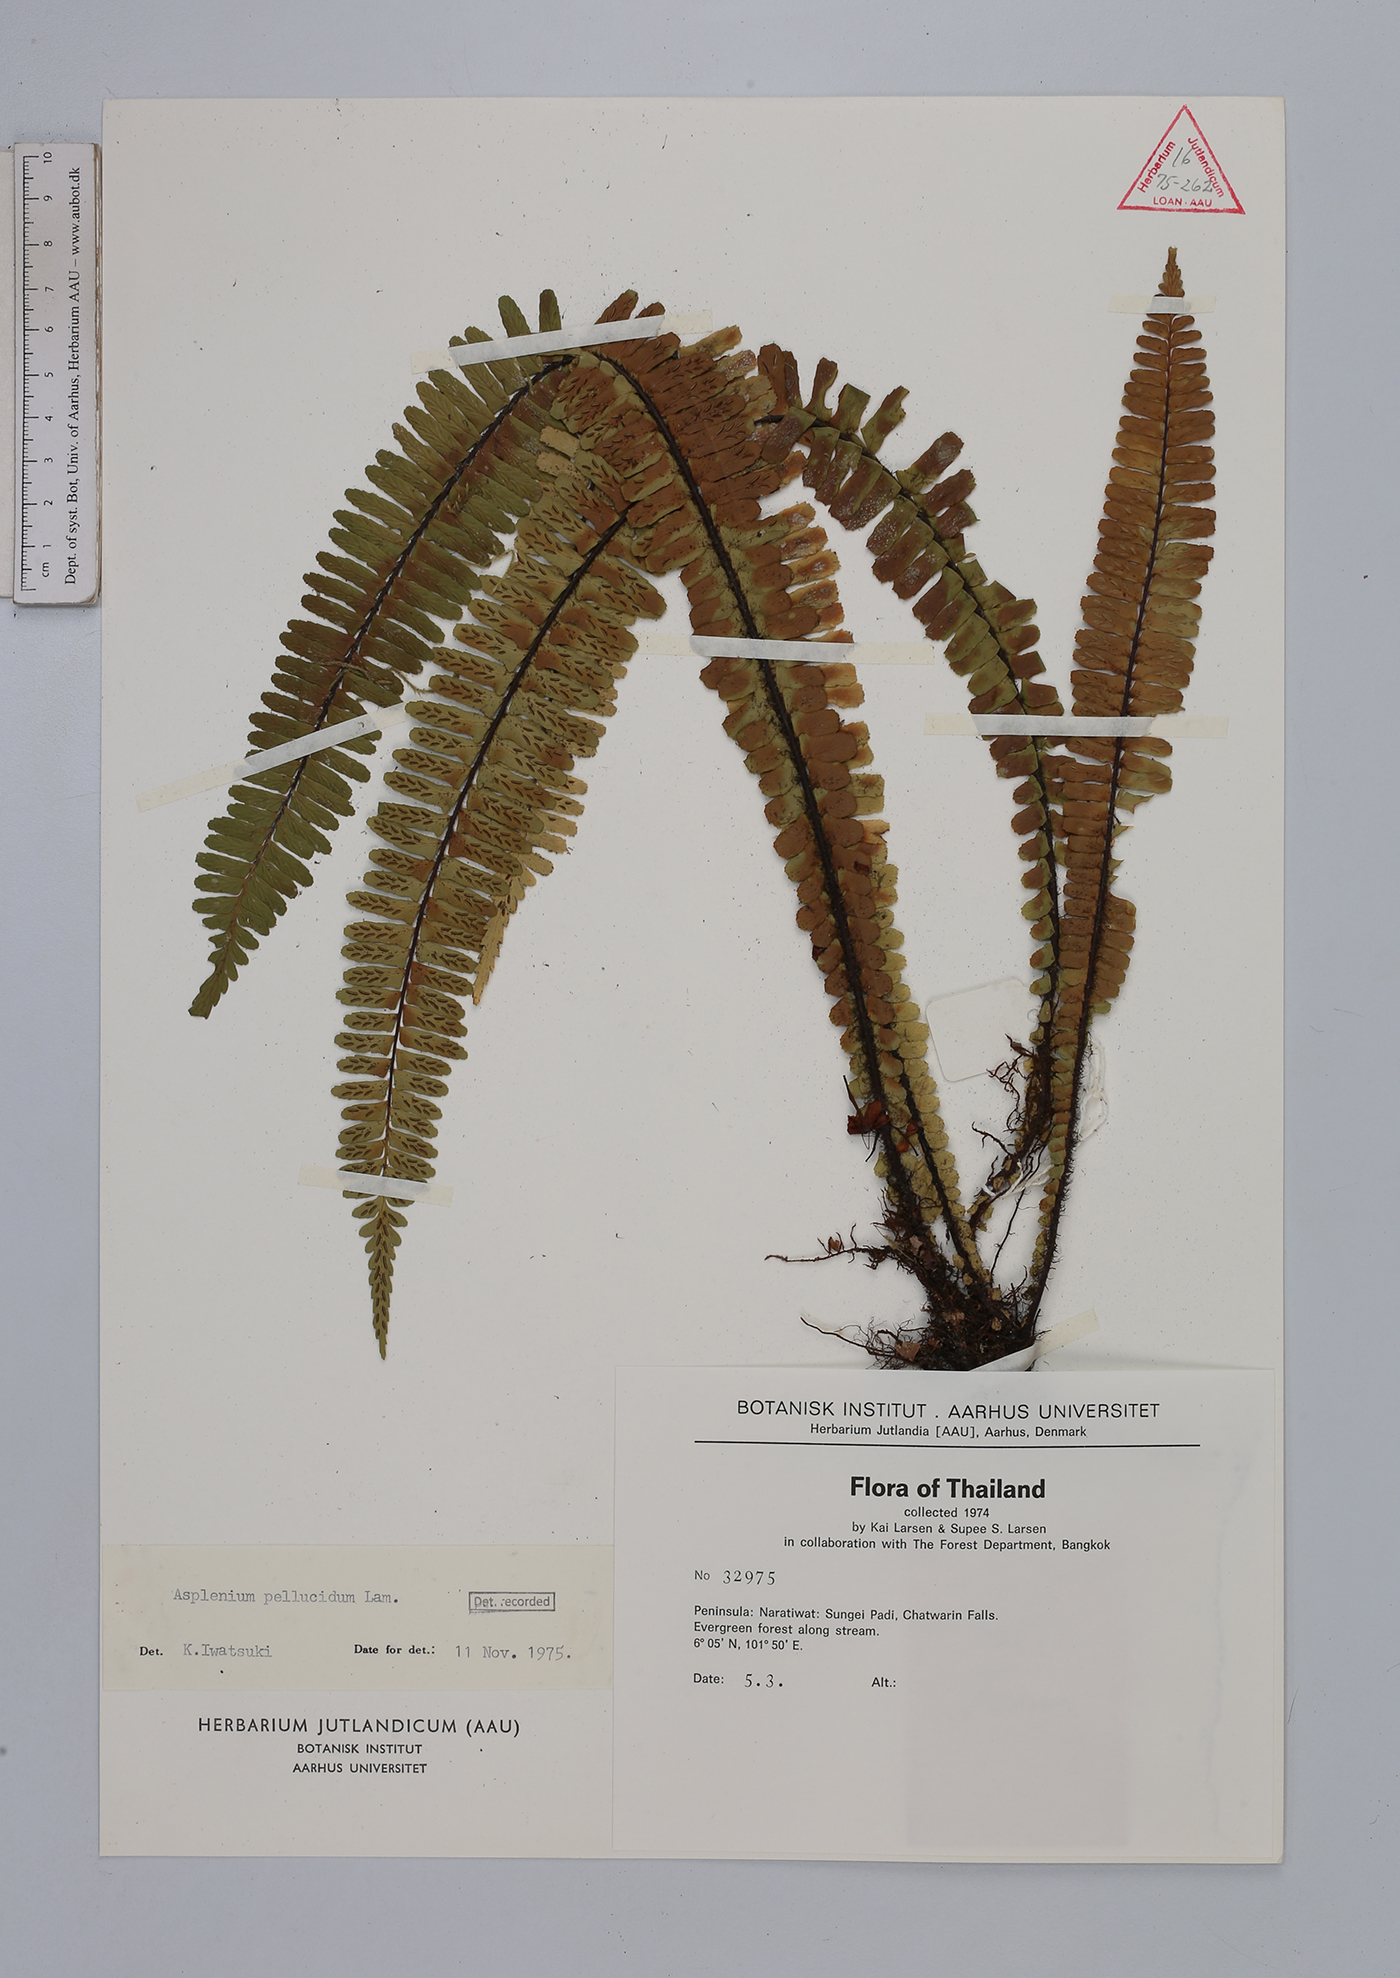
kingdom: Plantae
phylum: Tracheophyta
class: Polypodiopsida
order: Polypodiales
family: Aspleniaceae
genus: Asplenium
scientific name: Asplenium pellucidum
